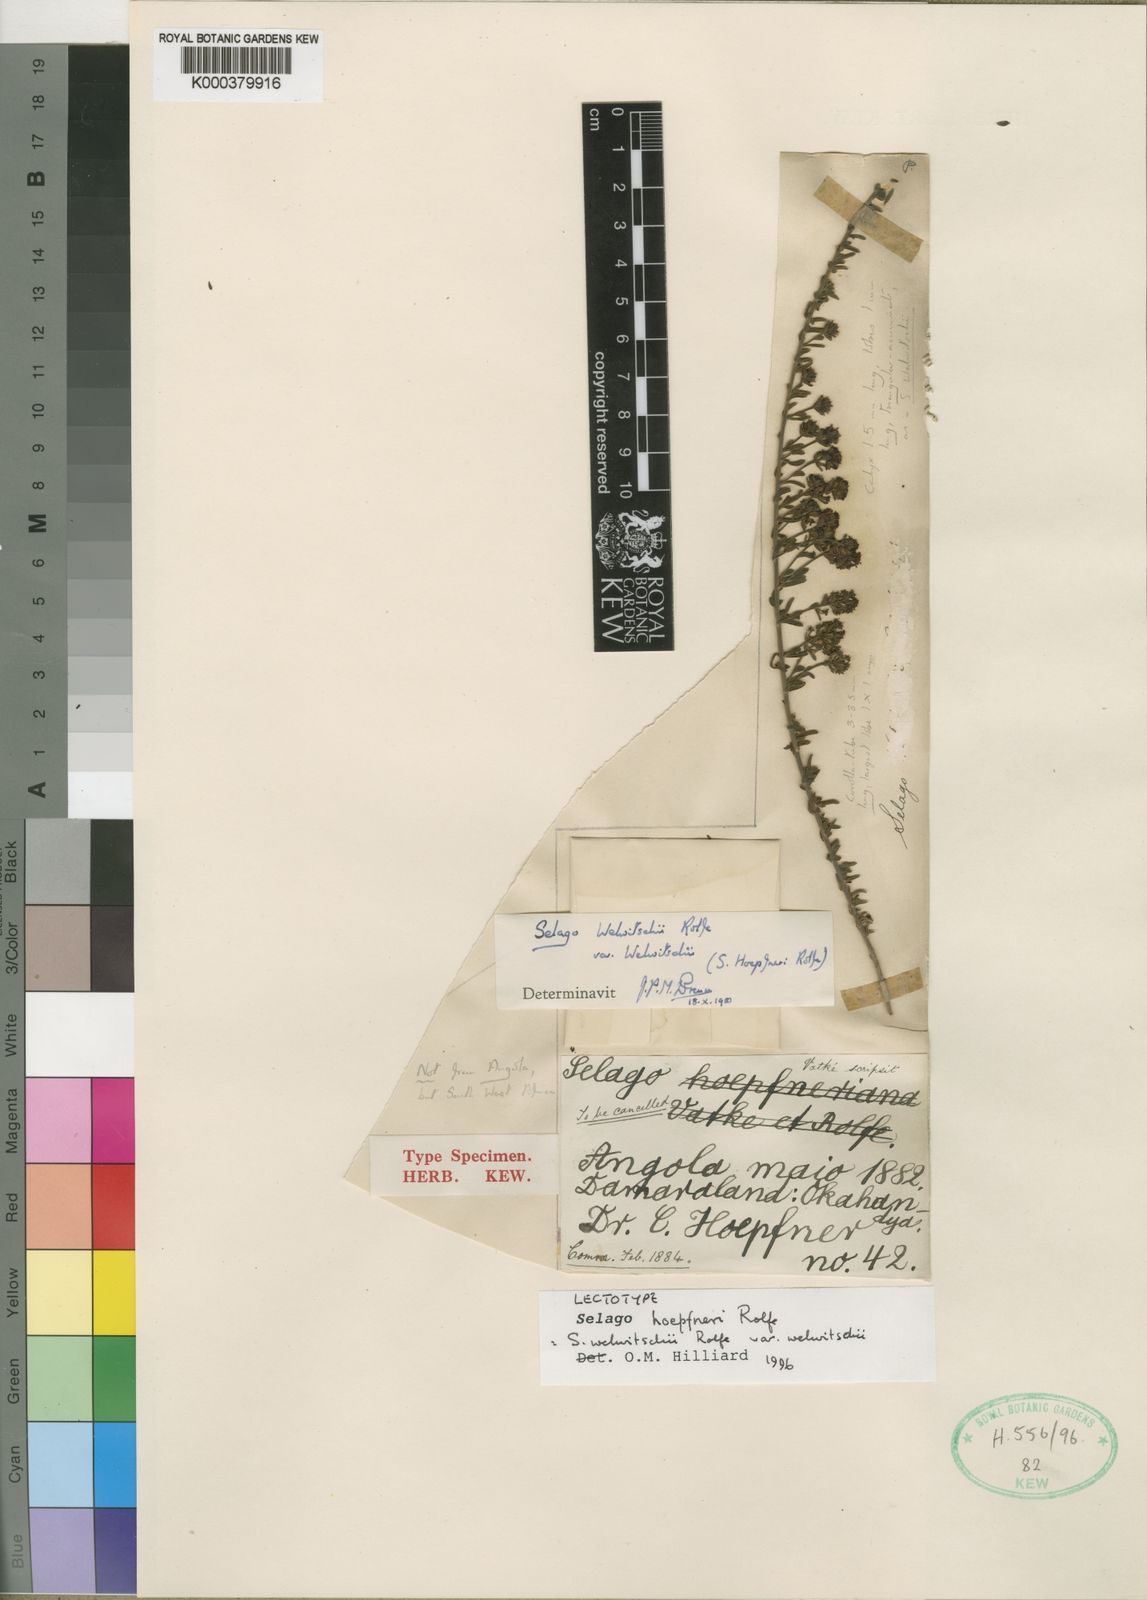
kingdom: Plantae
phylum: Tracheophyta
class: Magnoliopsida
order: Lamiales
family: Scrophulariaceae
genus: Selago
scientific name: Selago welwitschii
